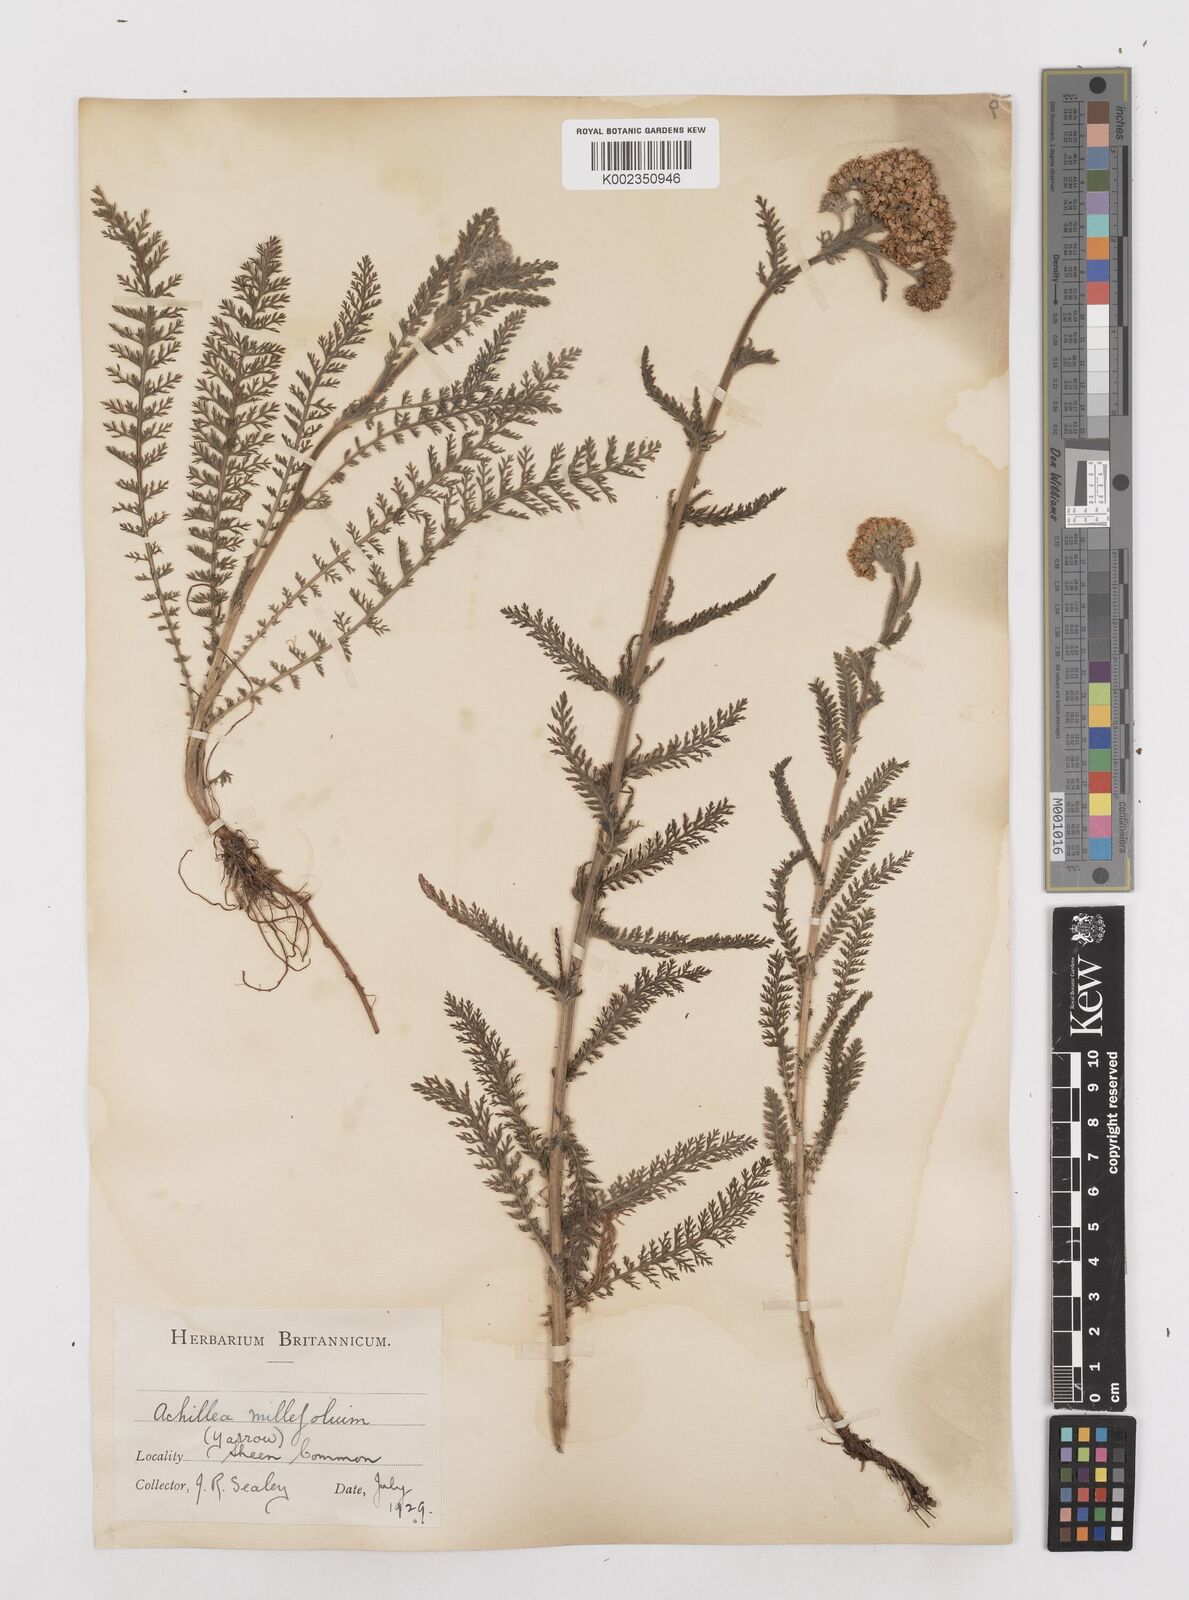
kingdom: Plantae
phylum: Tracheophyta
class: Magnoliopsida
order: Asterales
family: Asteraceae
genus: Achillea
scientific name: Achillea millefolium
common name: Yarrow
